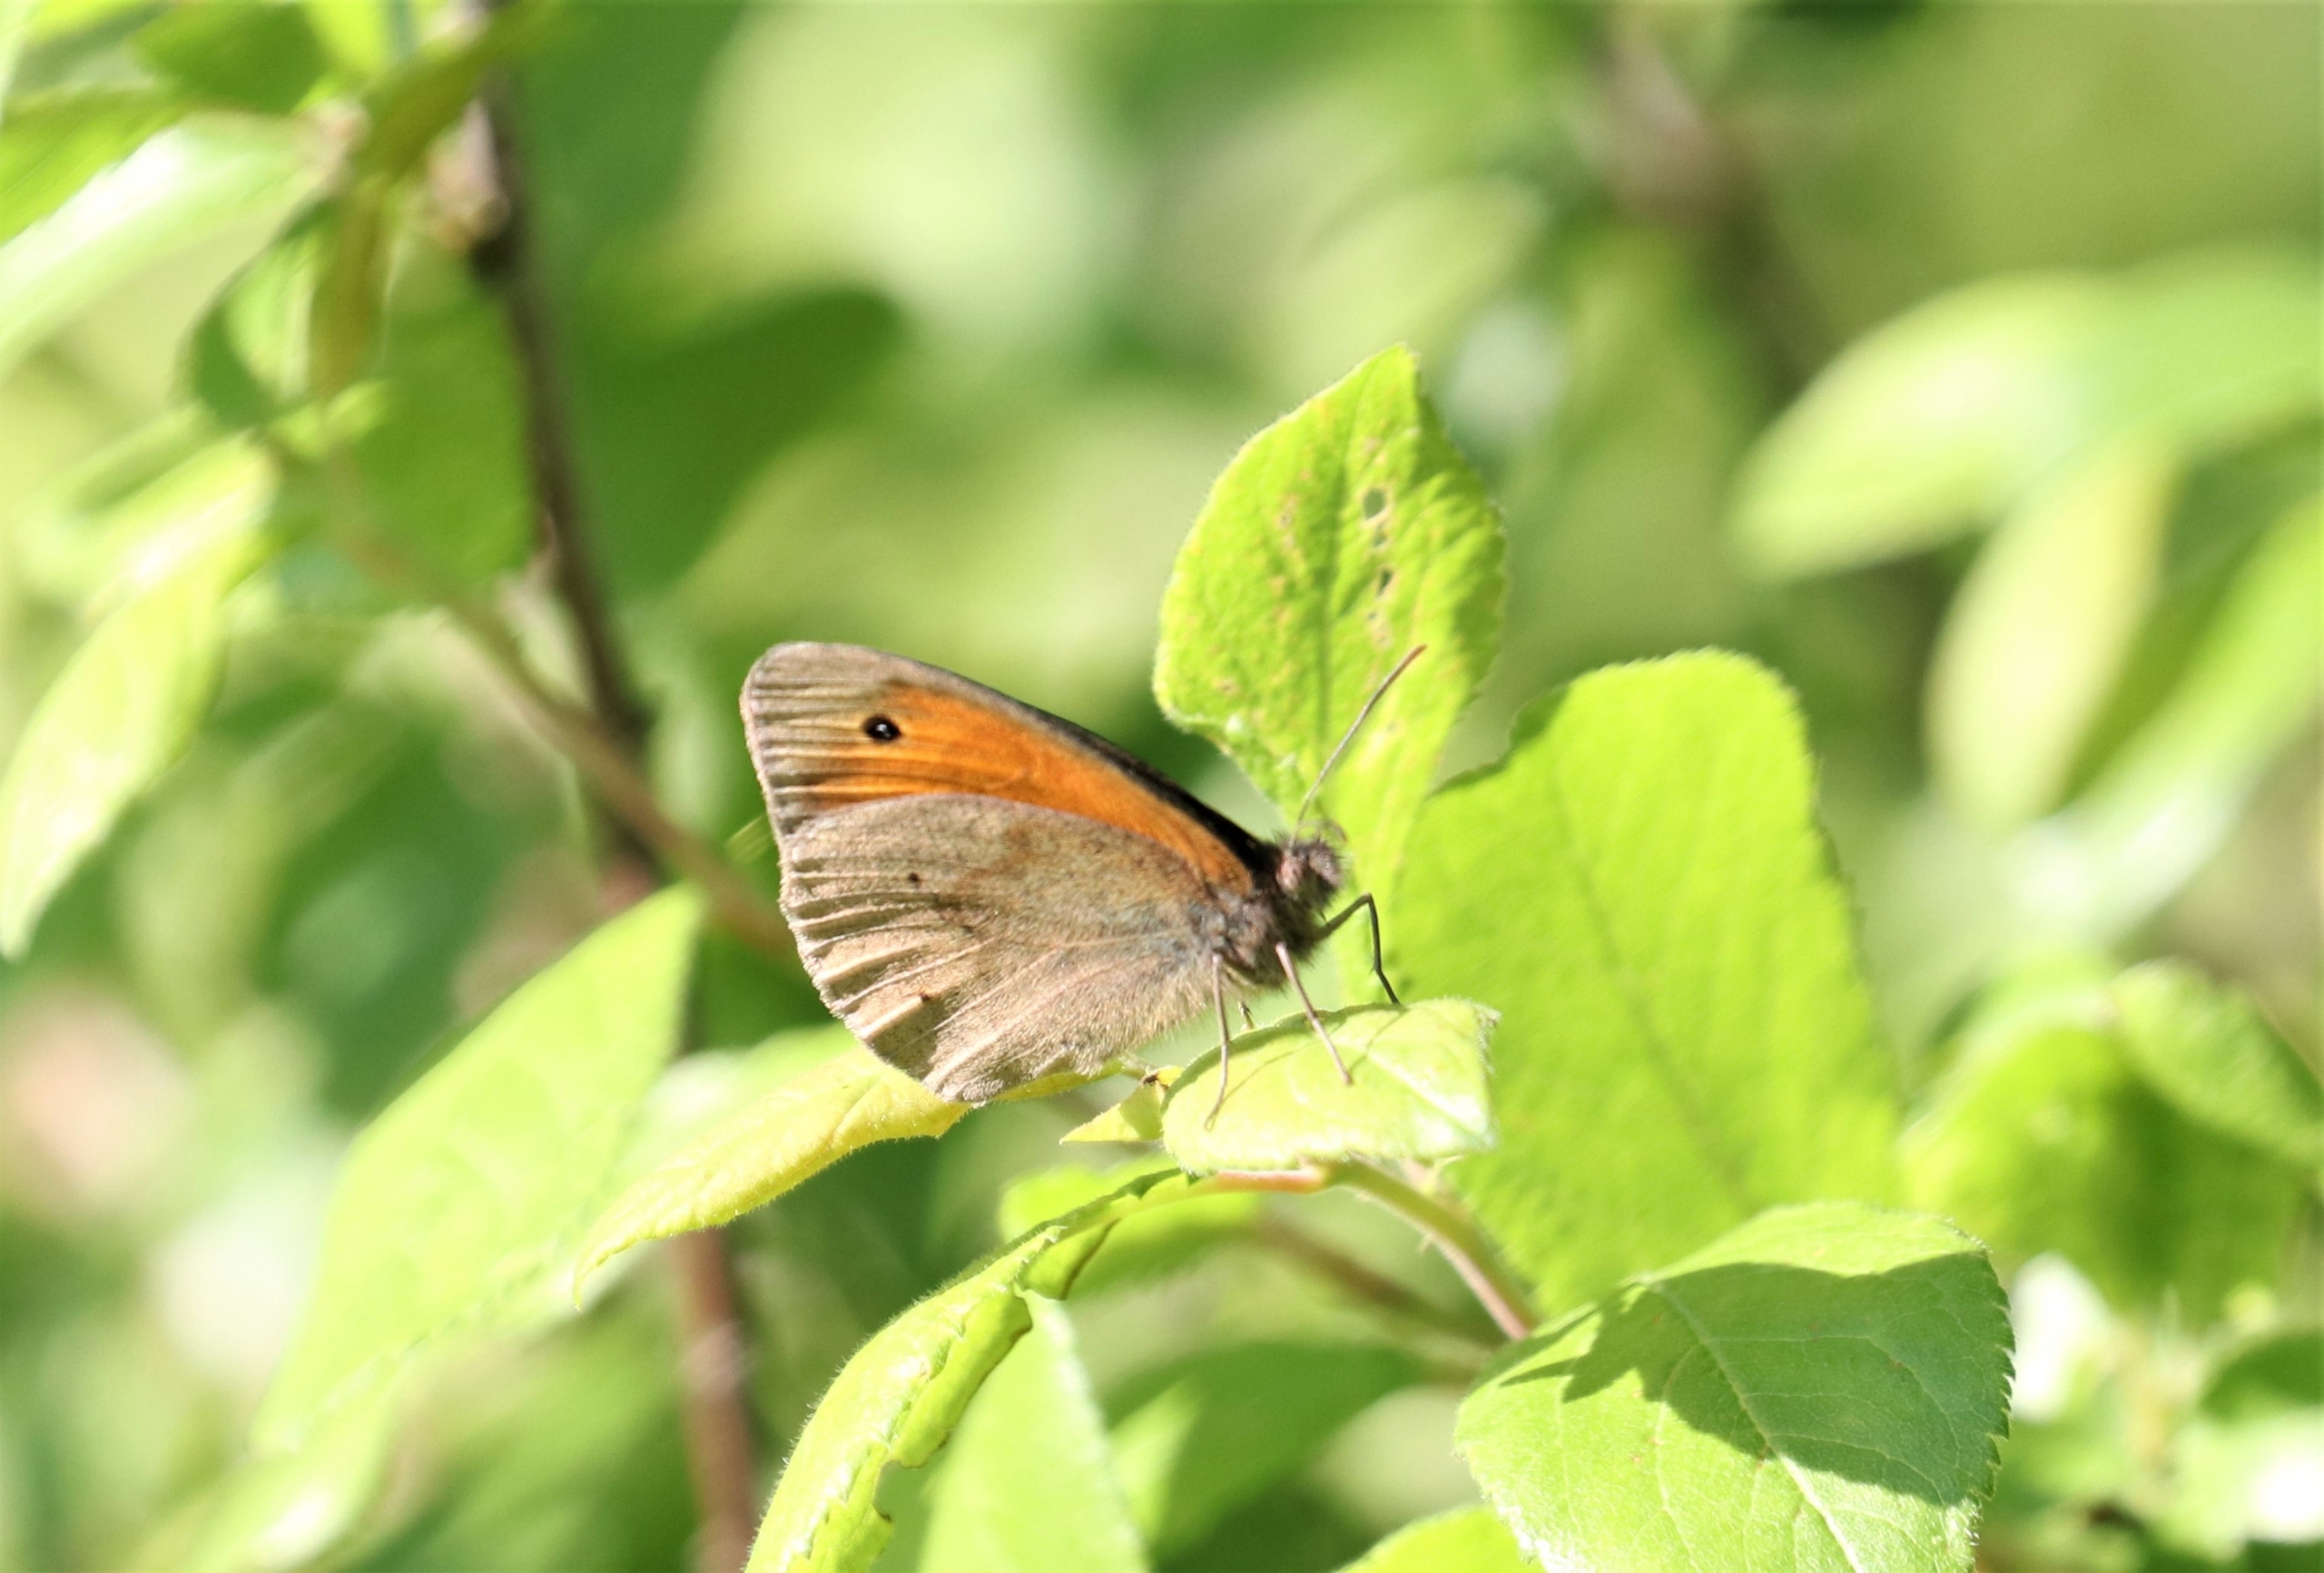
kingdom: Animalia
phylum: Arthropoda
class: Insecta
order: Lepidoptera
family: Nymphalidae
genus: Maniola
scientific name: Maniola jurtina
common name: Græsrandøje
